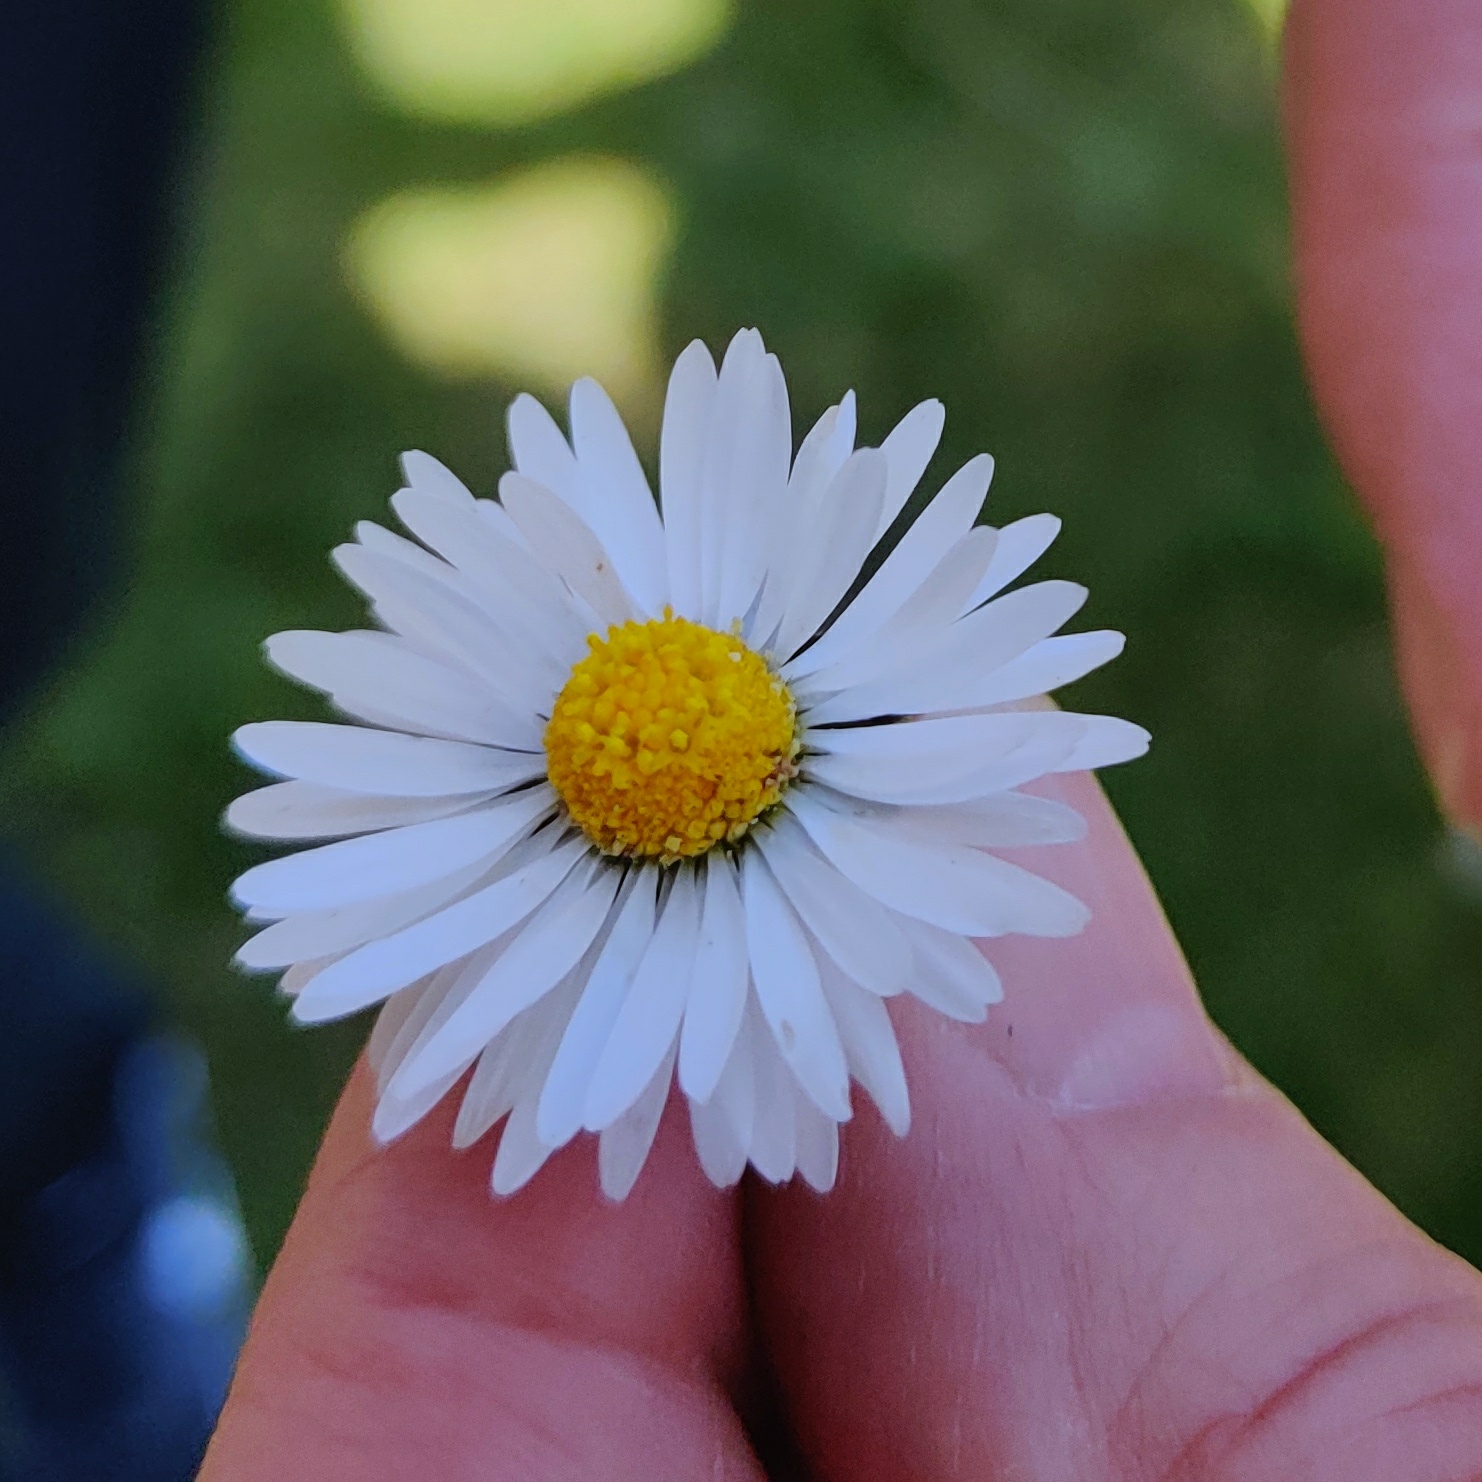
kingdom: Plantae
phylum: Tracheophyta
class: Magnoliopsida
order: Asterales
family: Asteraceae
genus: Bellis
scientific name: Bellis perennis
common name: Tusindfryd
